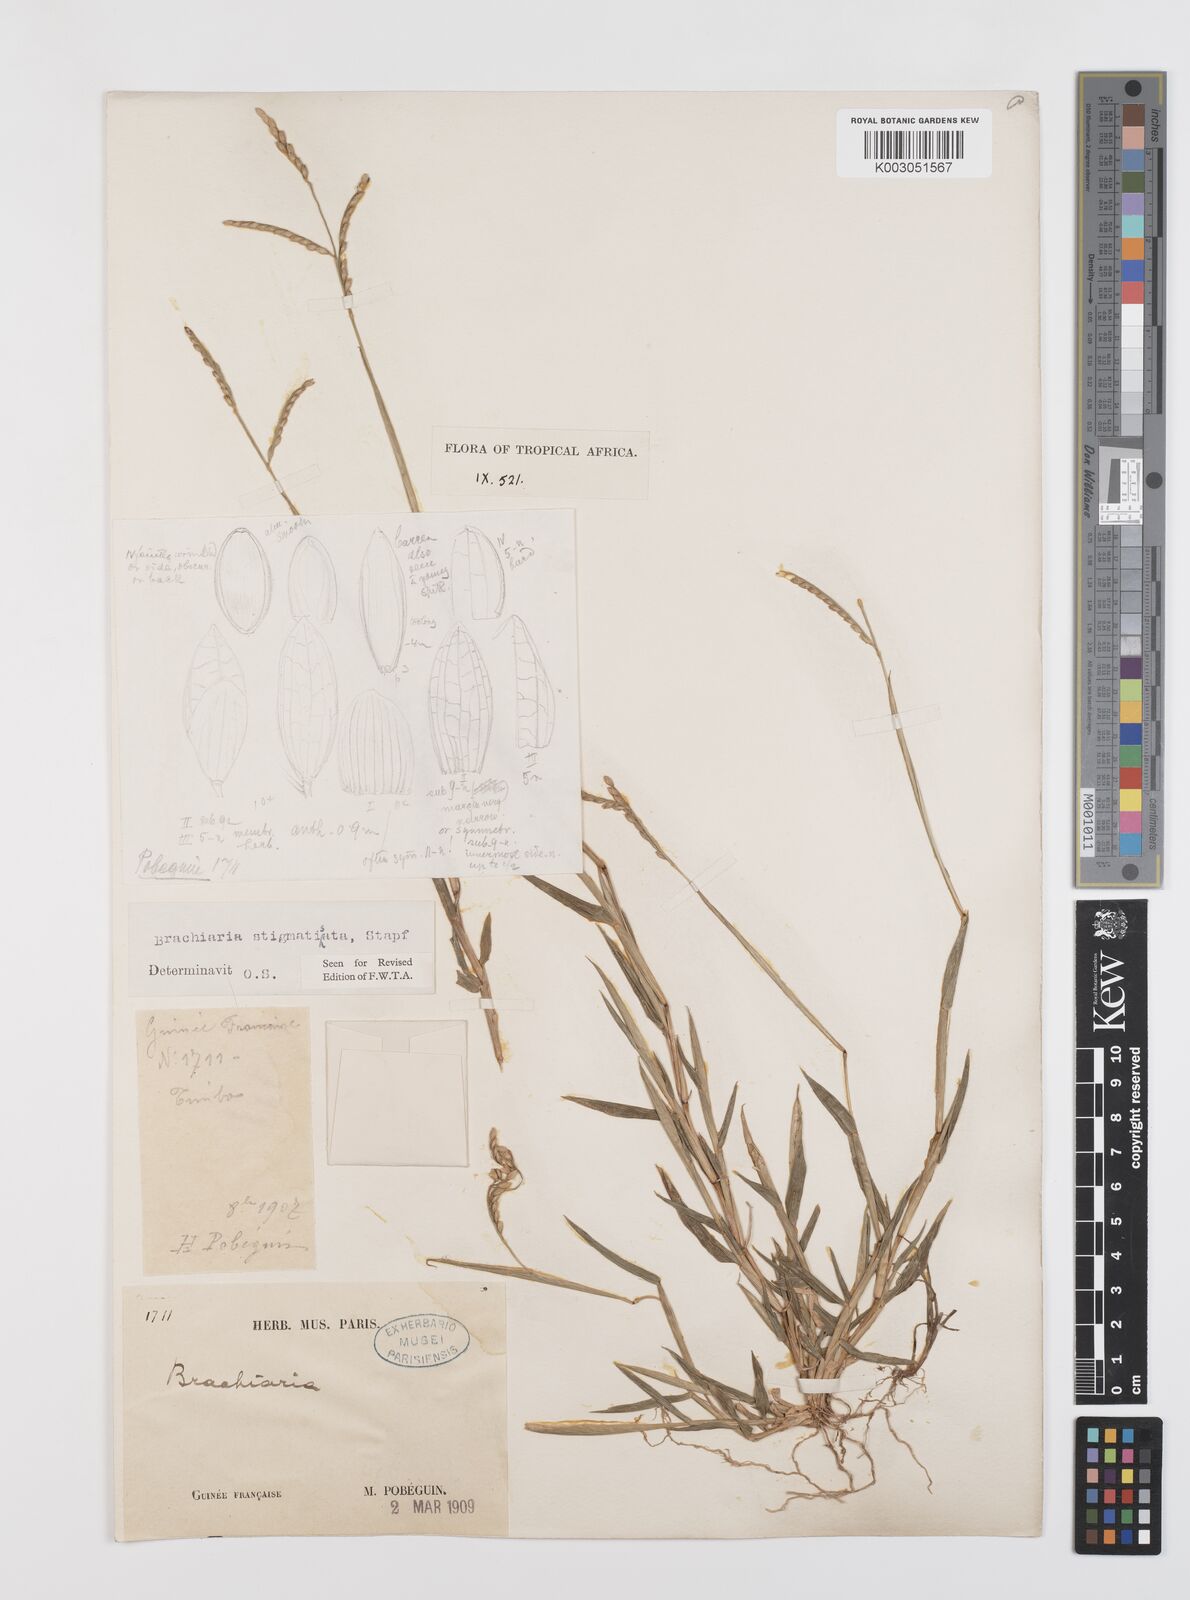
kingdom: Plantae
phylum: Tracheophyta
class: Liliopsida
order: Poales
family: Poaceae
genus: Urochloa
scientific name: Urochloa stigmatisata
